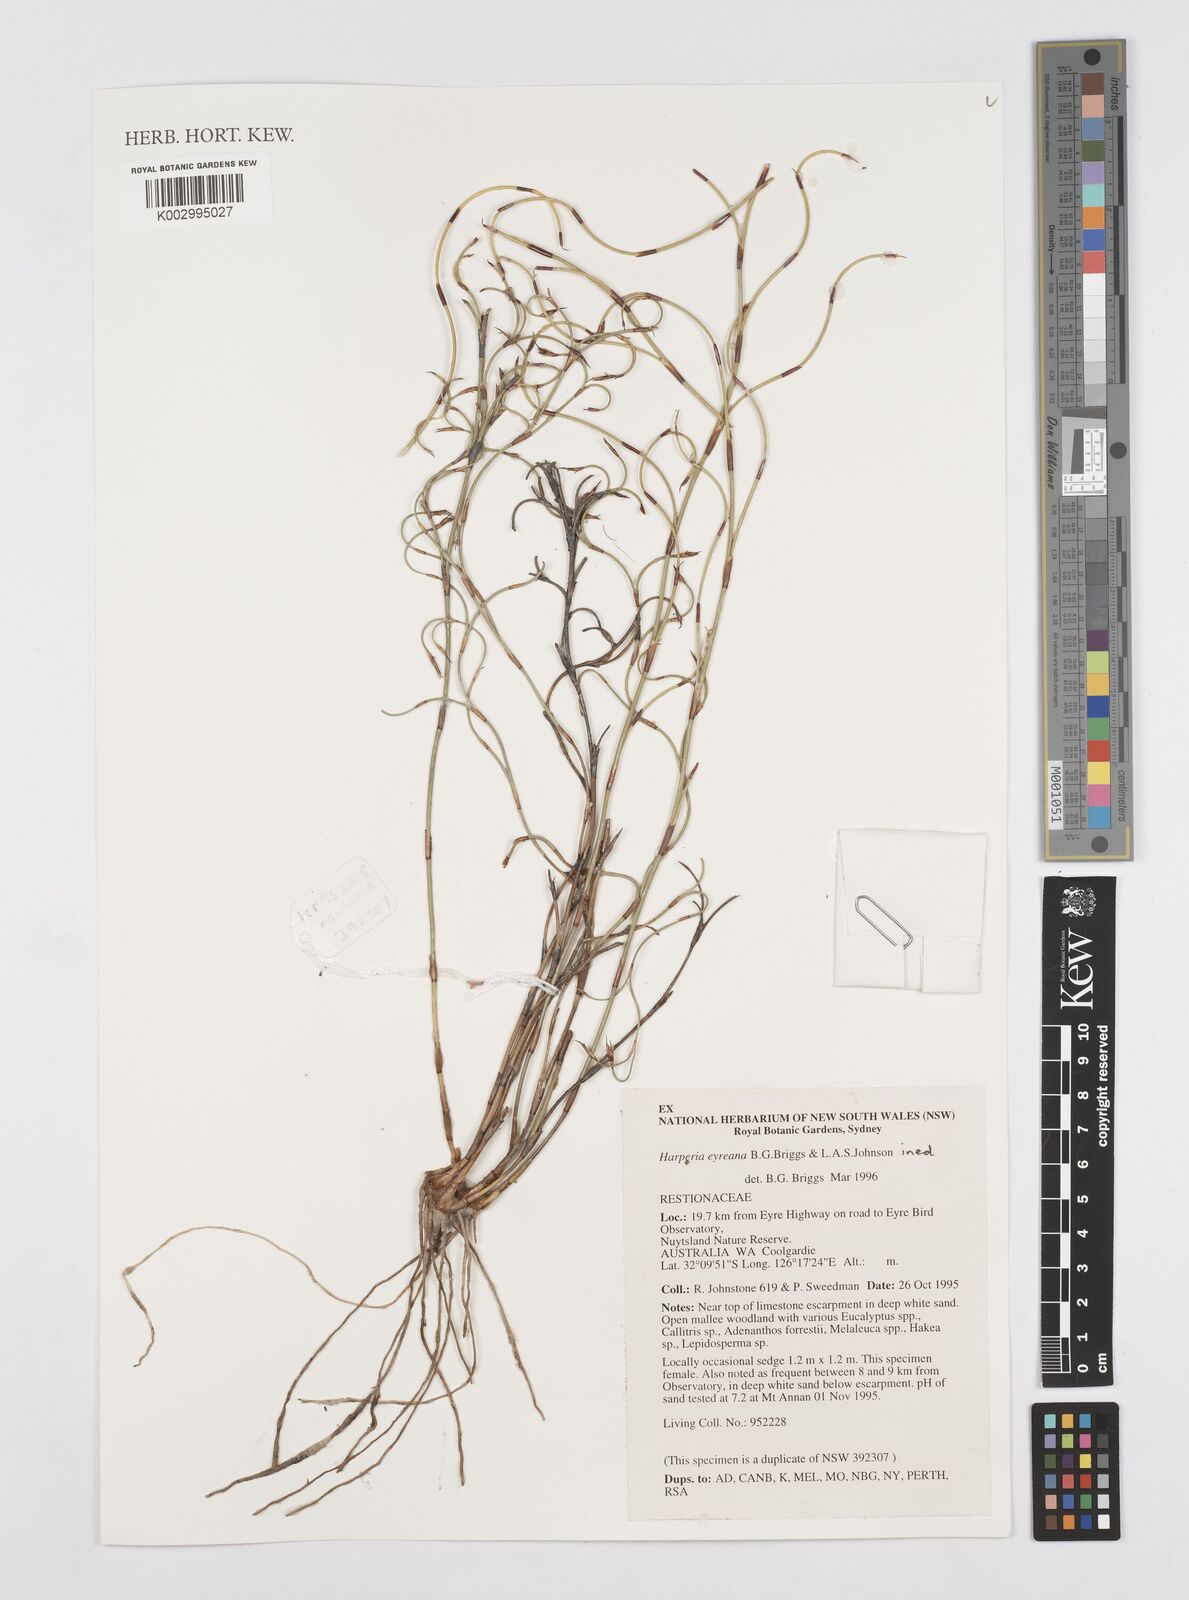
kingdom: Plantae
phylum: Tracheophyta
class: Liliopsida
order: Poales
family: Restionaceae
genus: Desmocladus
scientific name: Desmocladus eyreanus
